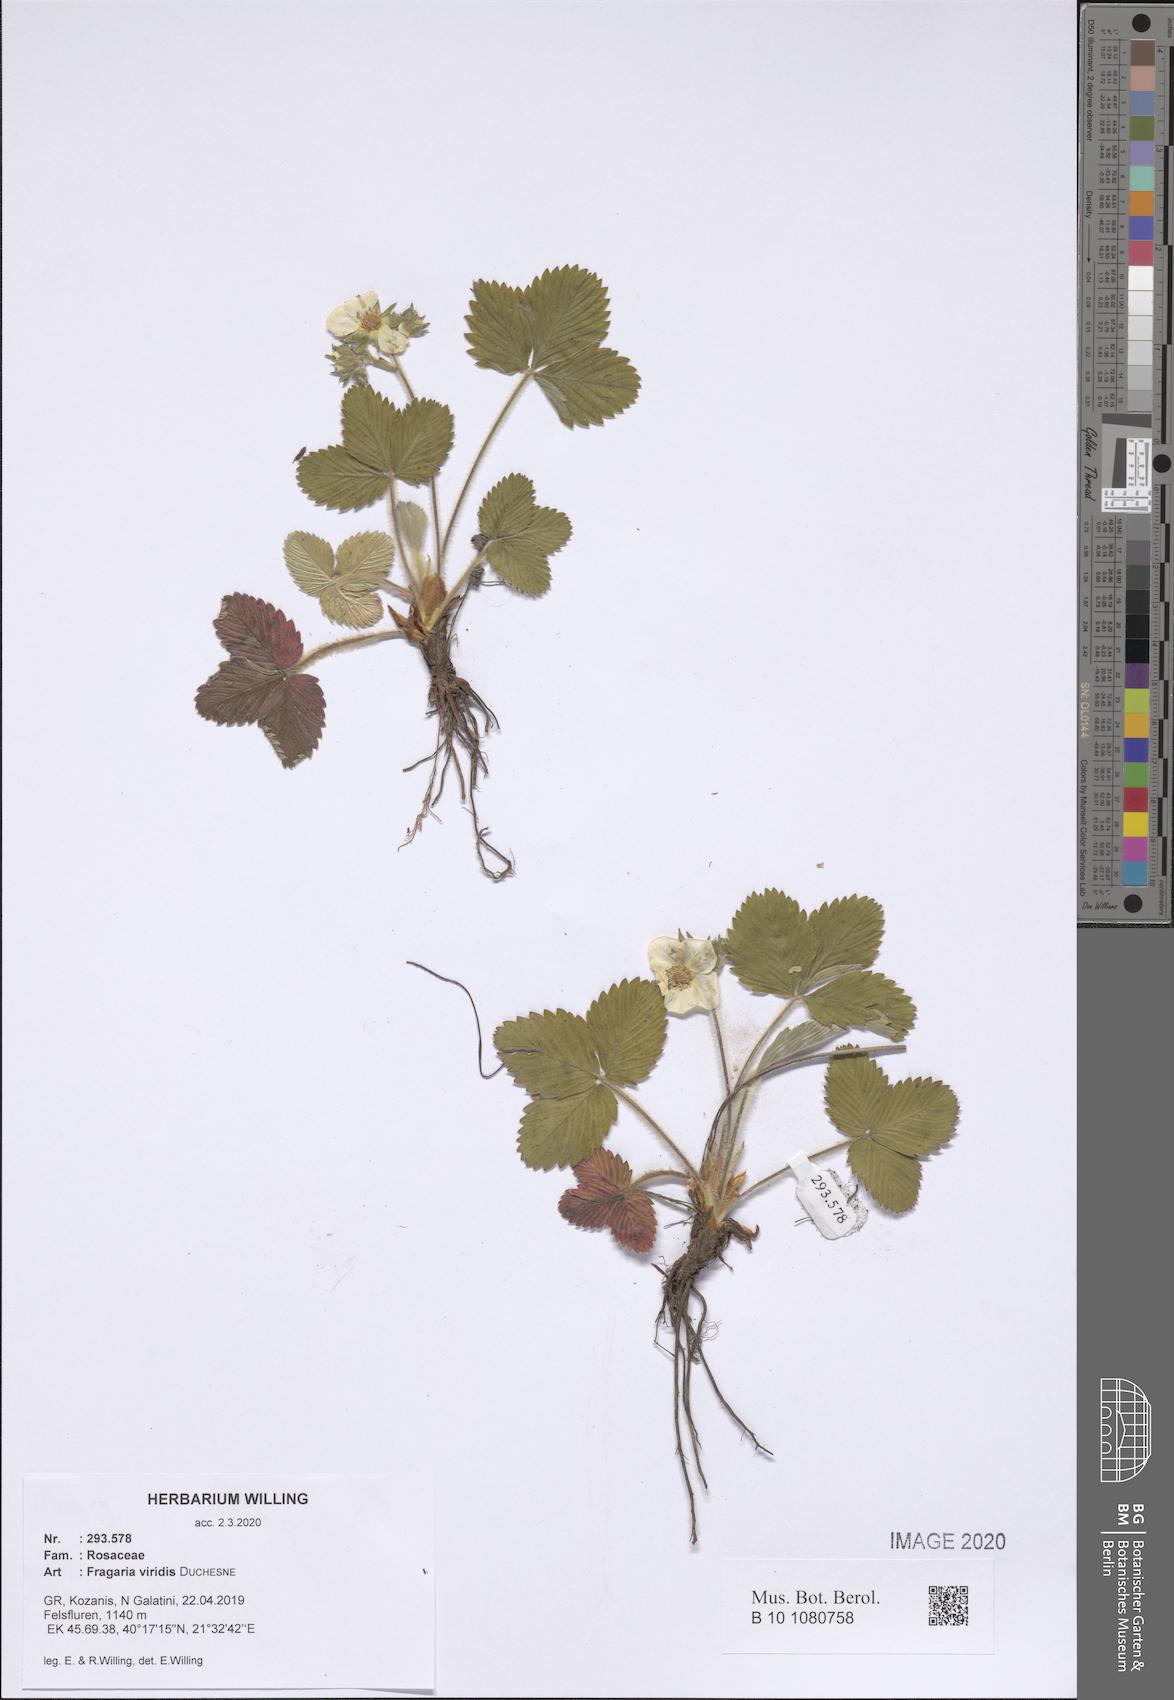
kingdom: Plantae
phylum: Tracheophyta
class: Magnoliopsida
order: Rosales
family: Rosaceae
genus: Fragaria
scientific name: Fragaria viridis
